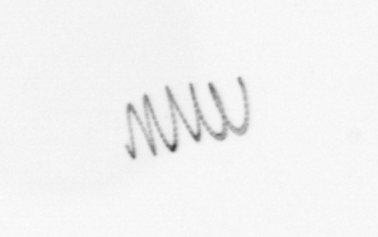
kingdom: Chromista
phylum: Ochrophyta
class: Bacillariophyceae
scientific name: Bacillariophyceae
